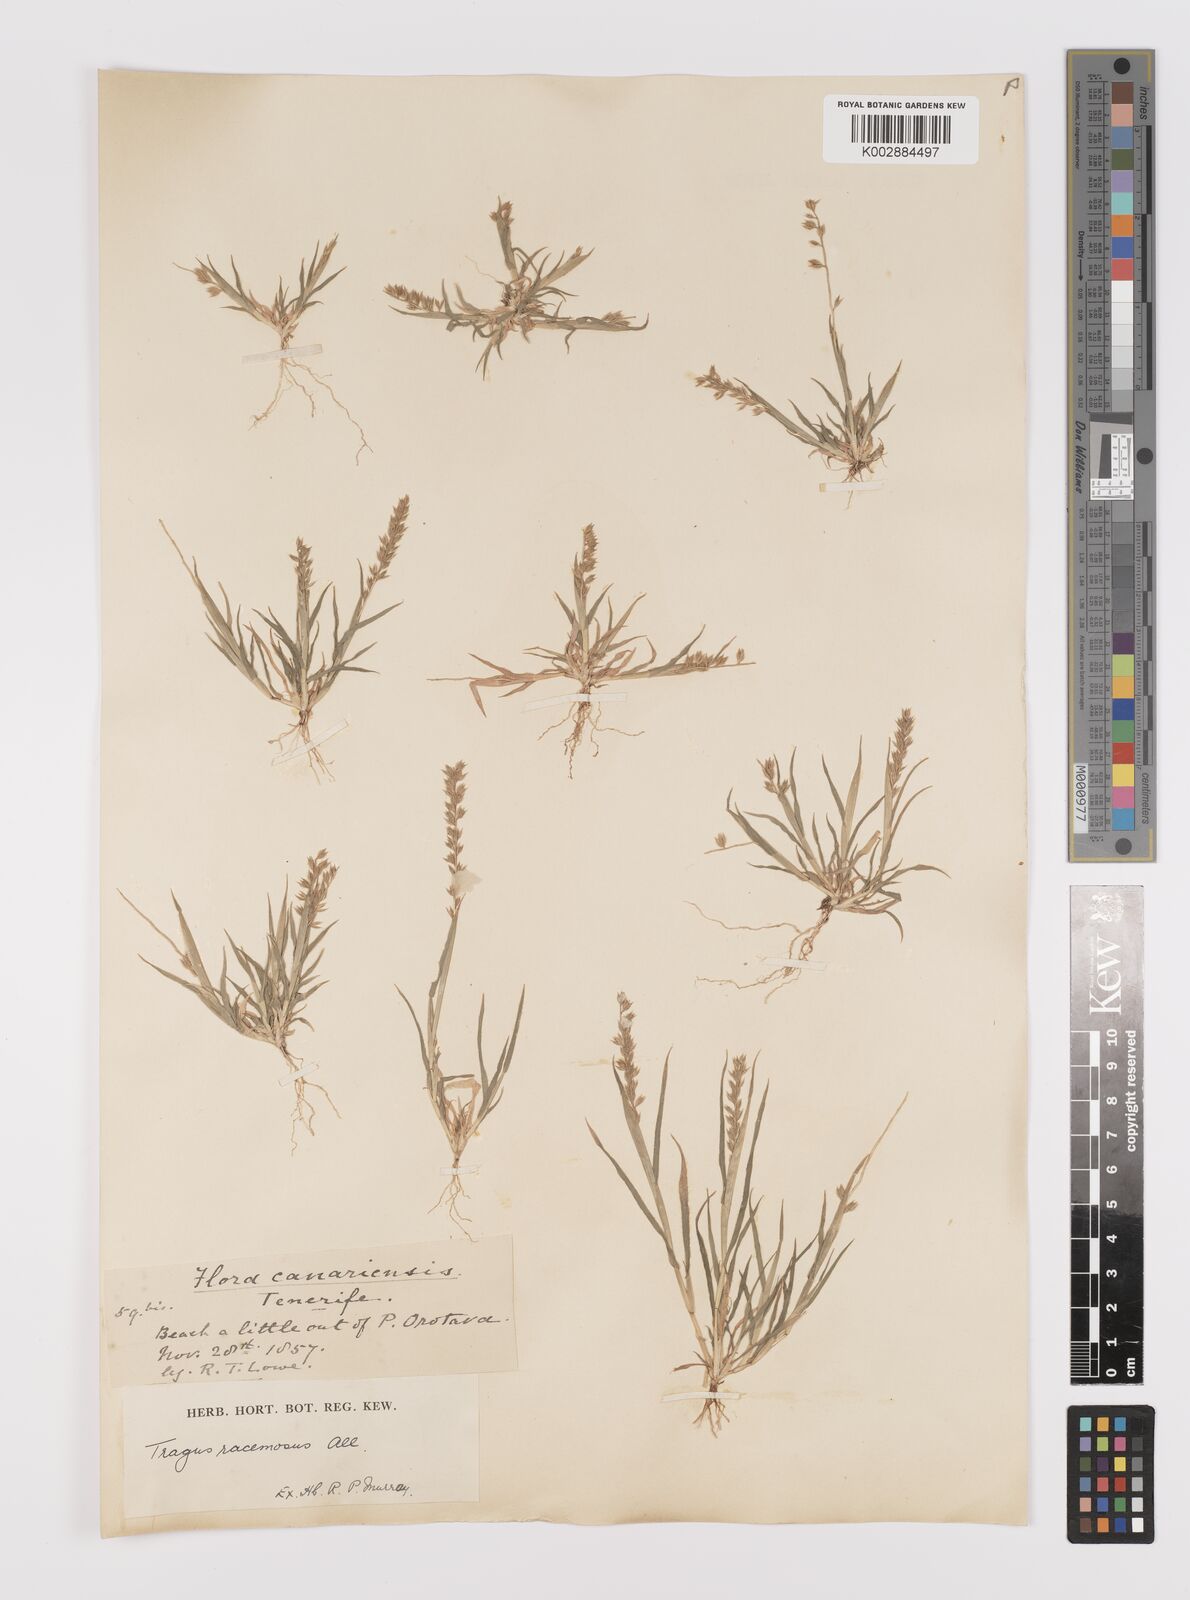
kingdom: Plantae
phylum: Tracheophyta
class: Liliopsida
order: Poales
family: Poaceae
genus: Tragus
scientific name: Tragus racemosus
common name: European bur-grass
